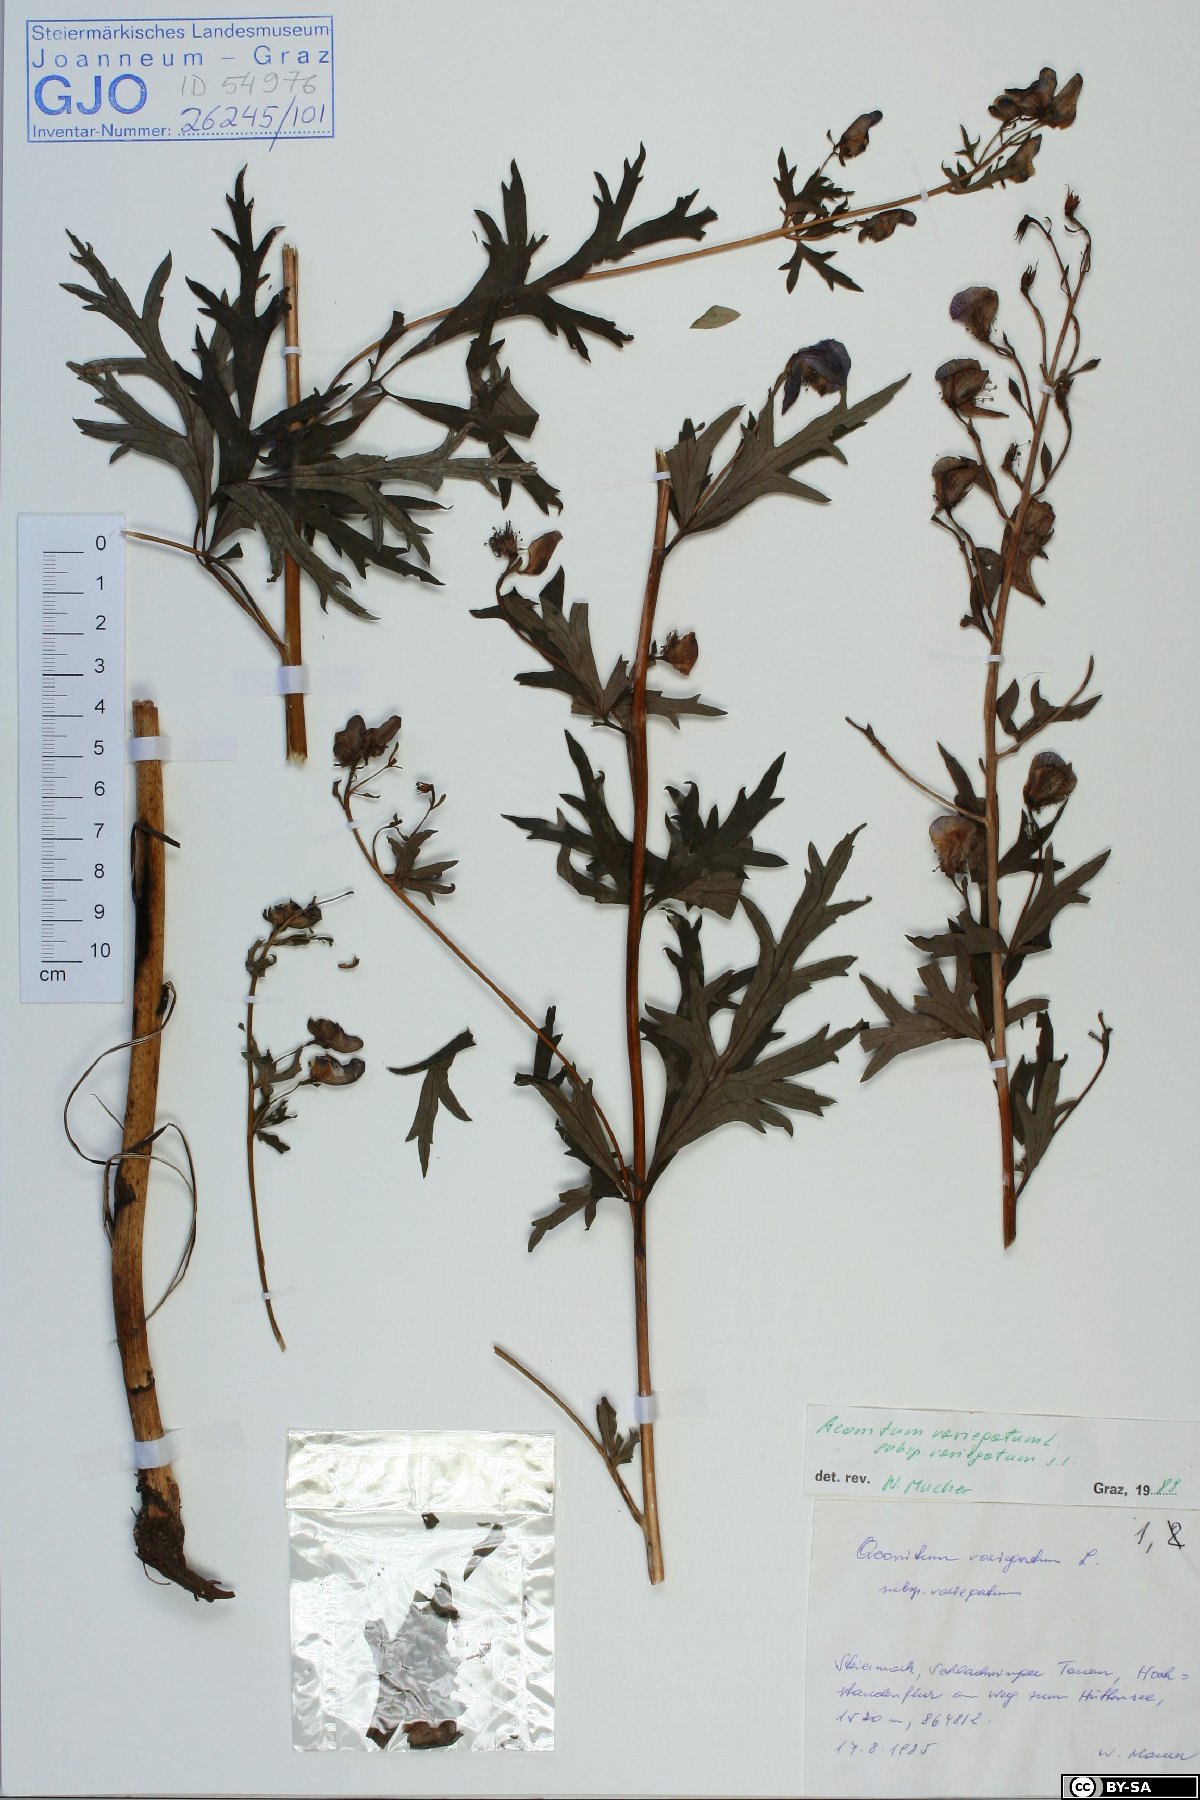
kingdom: Plantae
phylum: Tracheophyta
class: Magnoliopsida
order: Ranunculales
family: Ranunculaceae
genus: Aconitum
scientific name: Aconitum variegatum
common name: Manchurian monkshood
